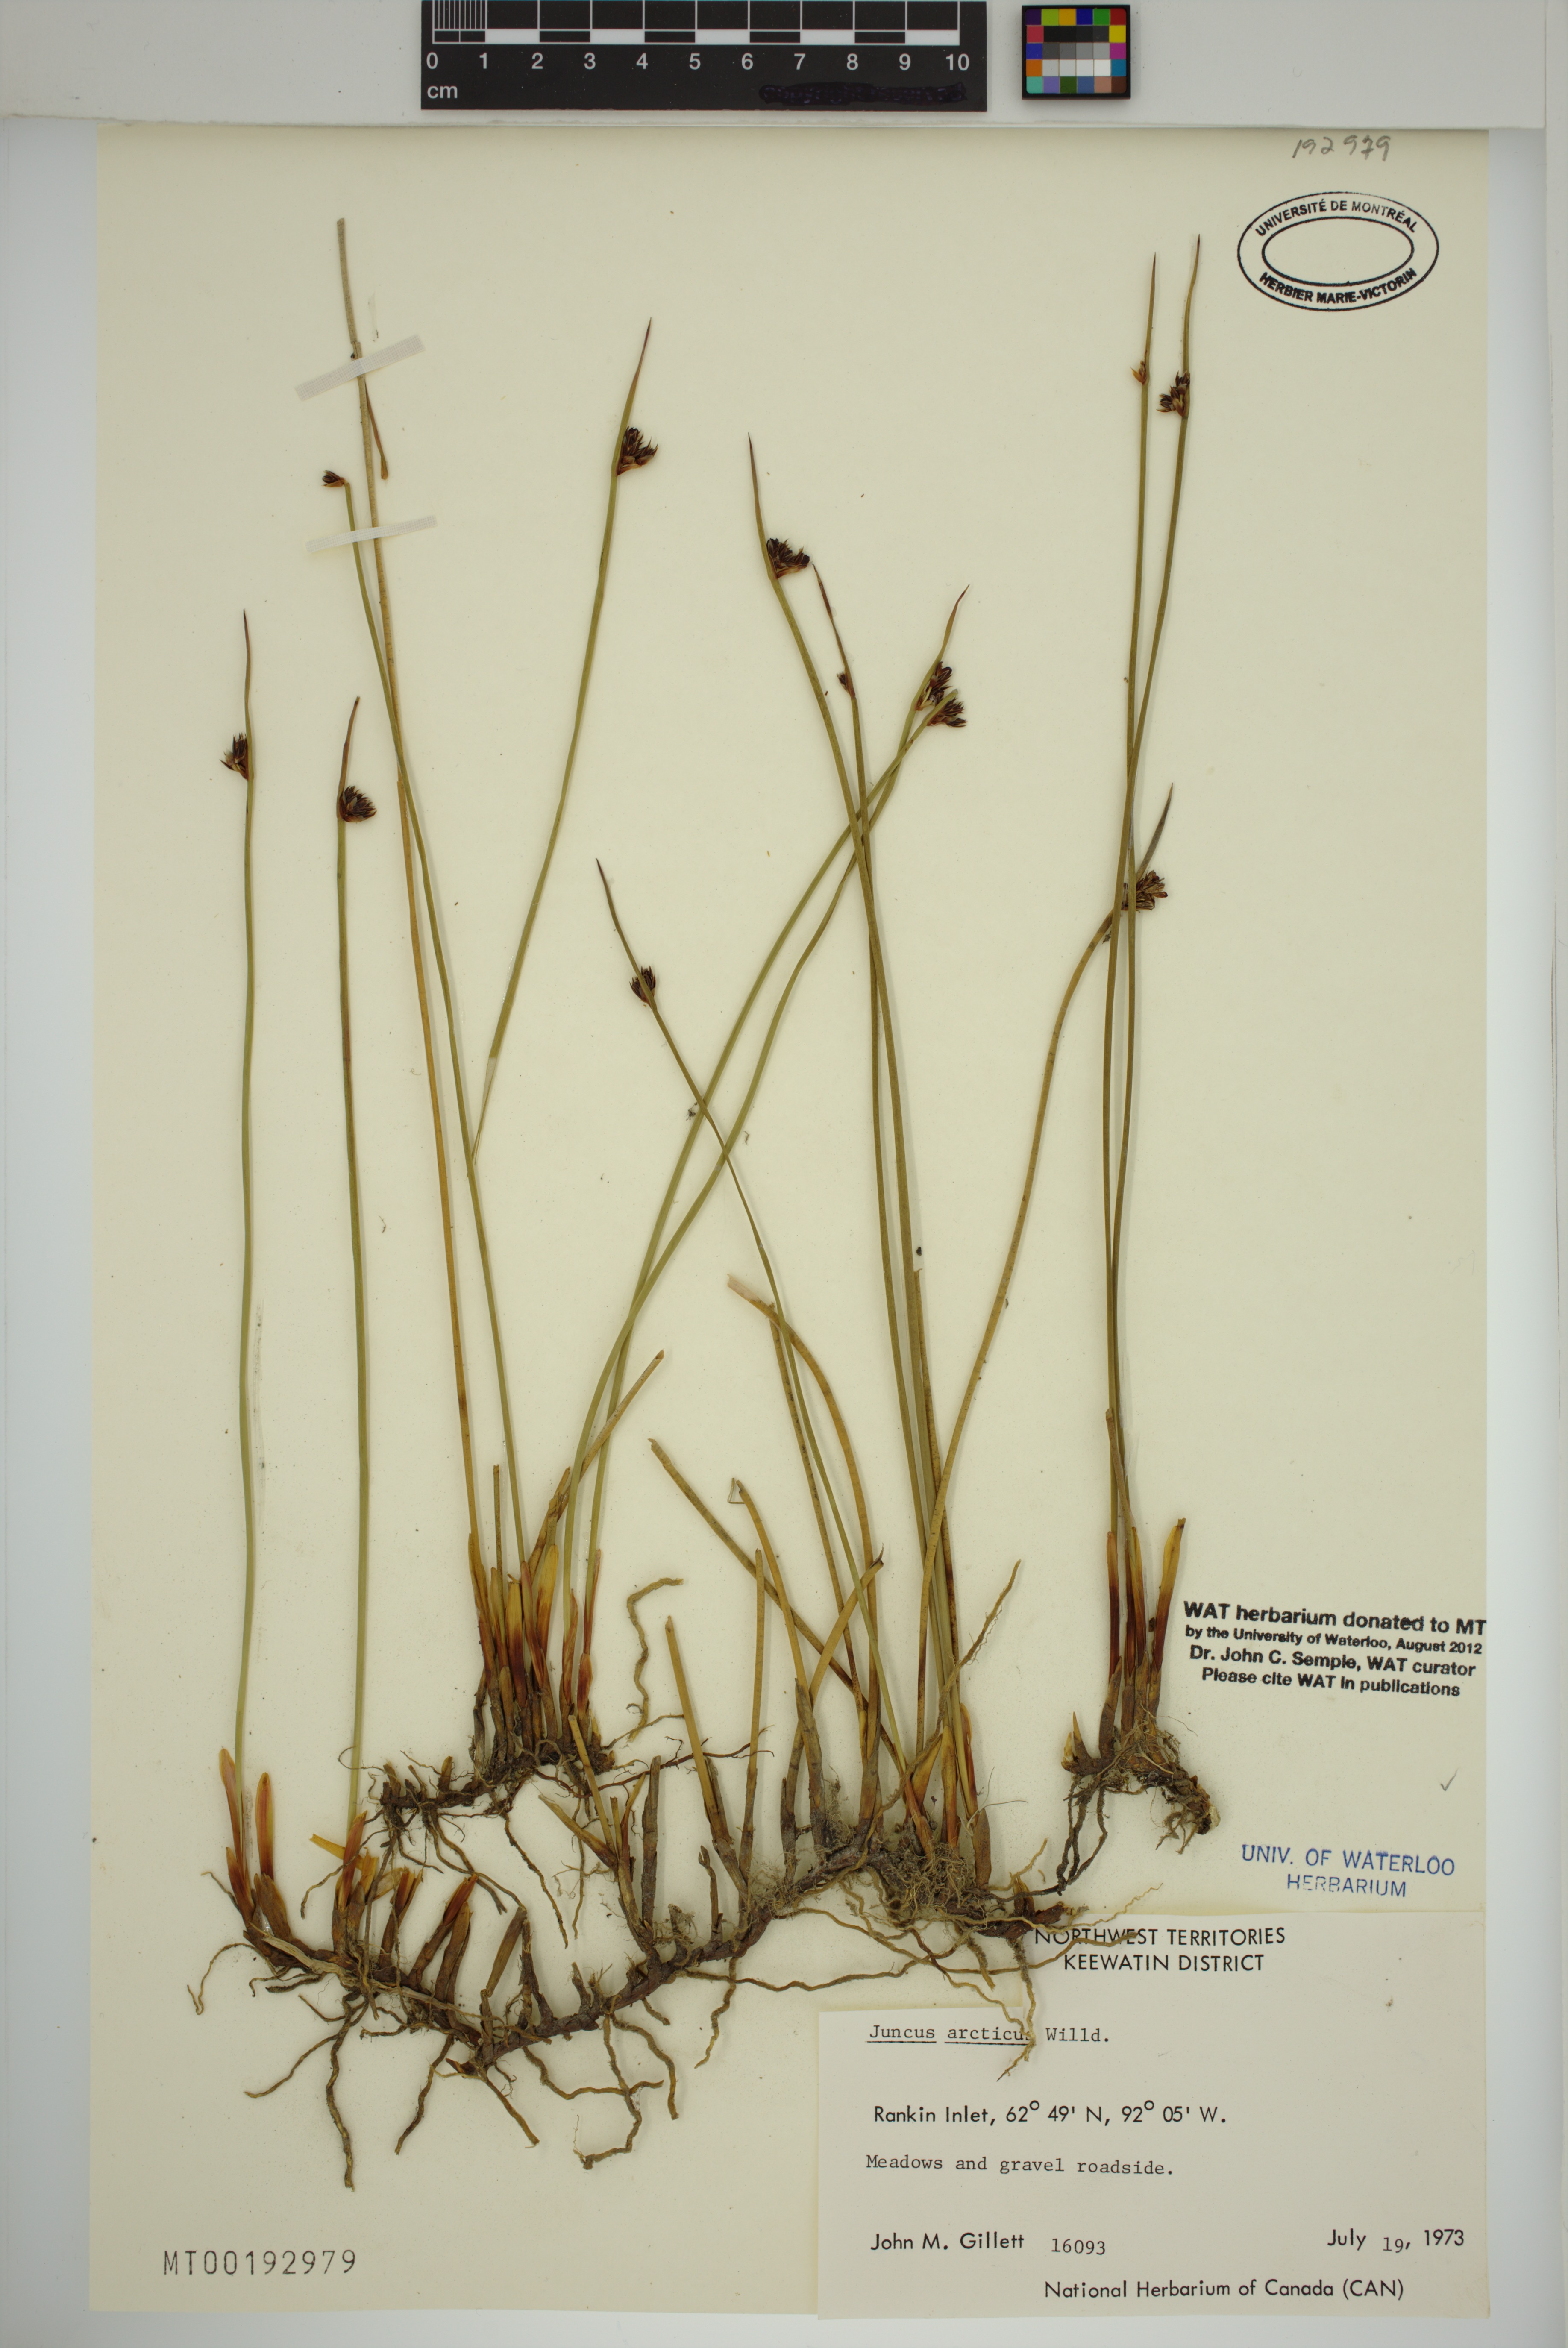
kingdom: Plantae
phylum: Tracheophyta
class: Liliopsida
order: Poales
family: Juncaceae
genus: Juncus
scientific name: Juncus arcticus
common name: Arctic rush
